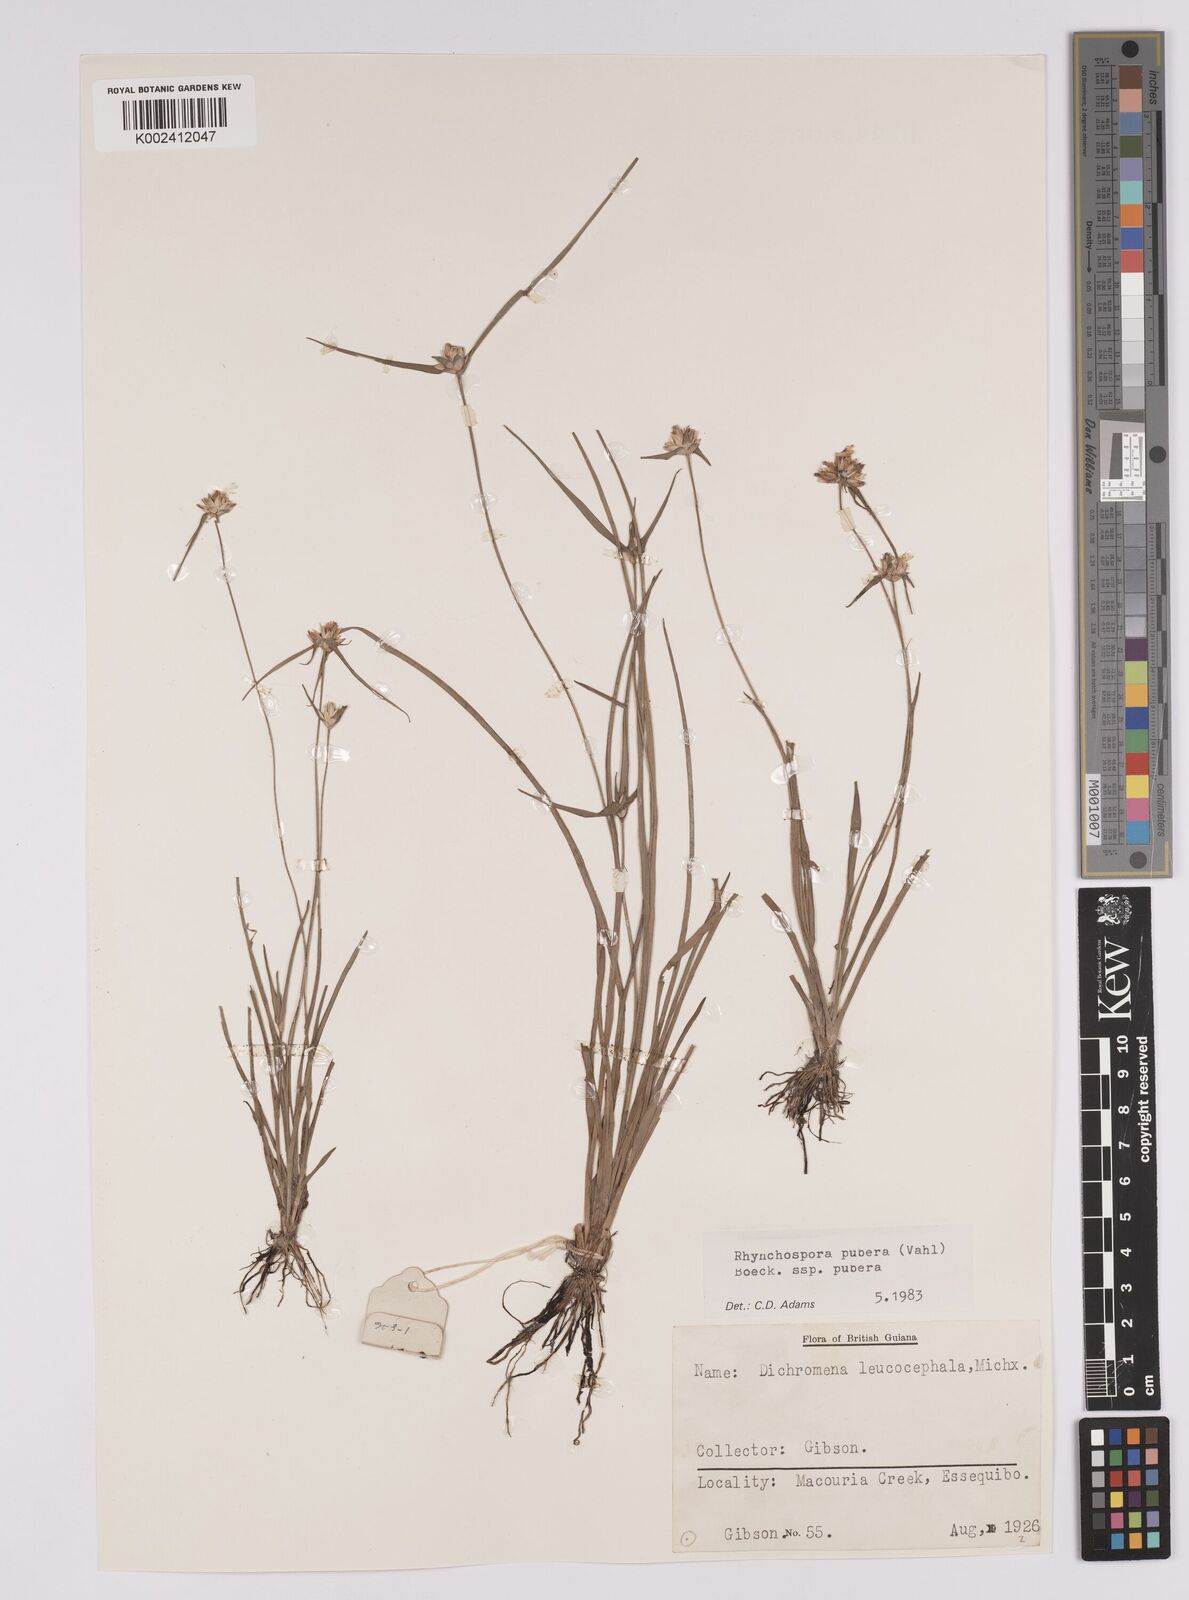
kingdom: Plantae
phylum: Tracheophyta
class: Liliopsida
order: Poales
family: Cyperaceae
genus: Rhynchospora
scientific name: Rhynchospora pubera
